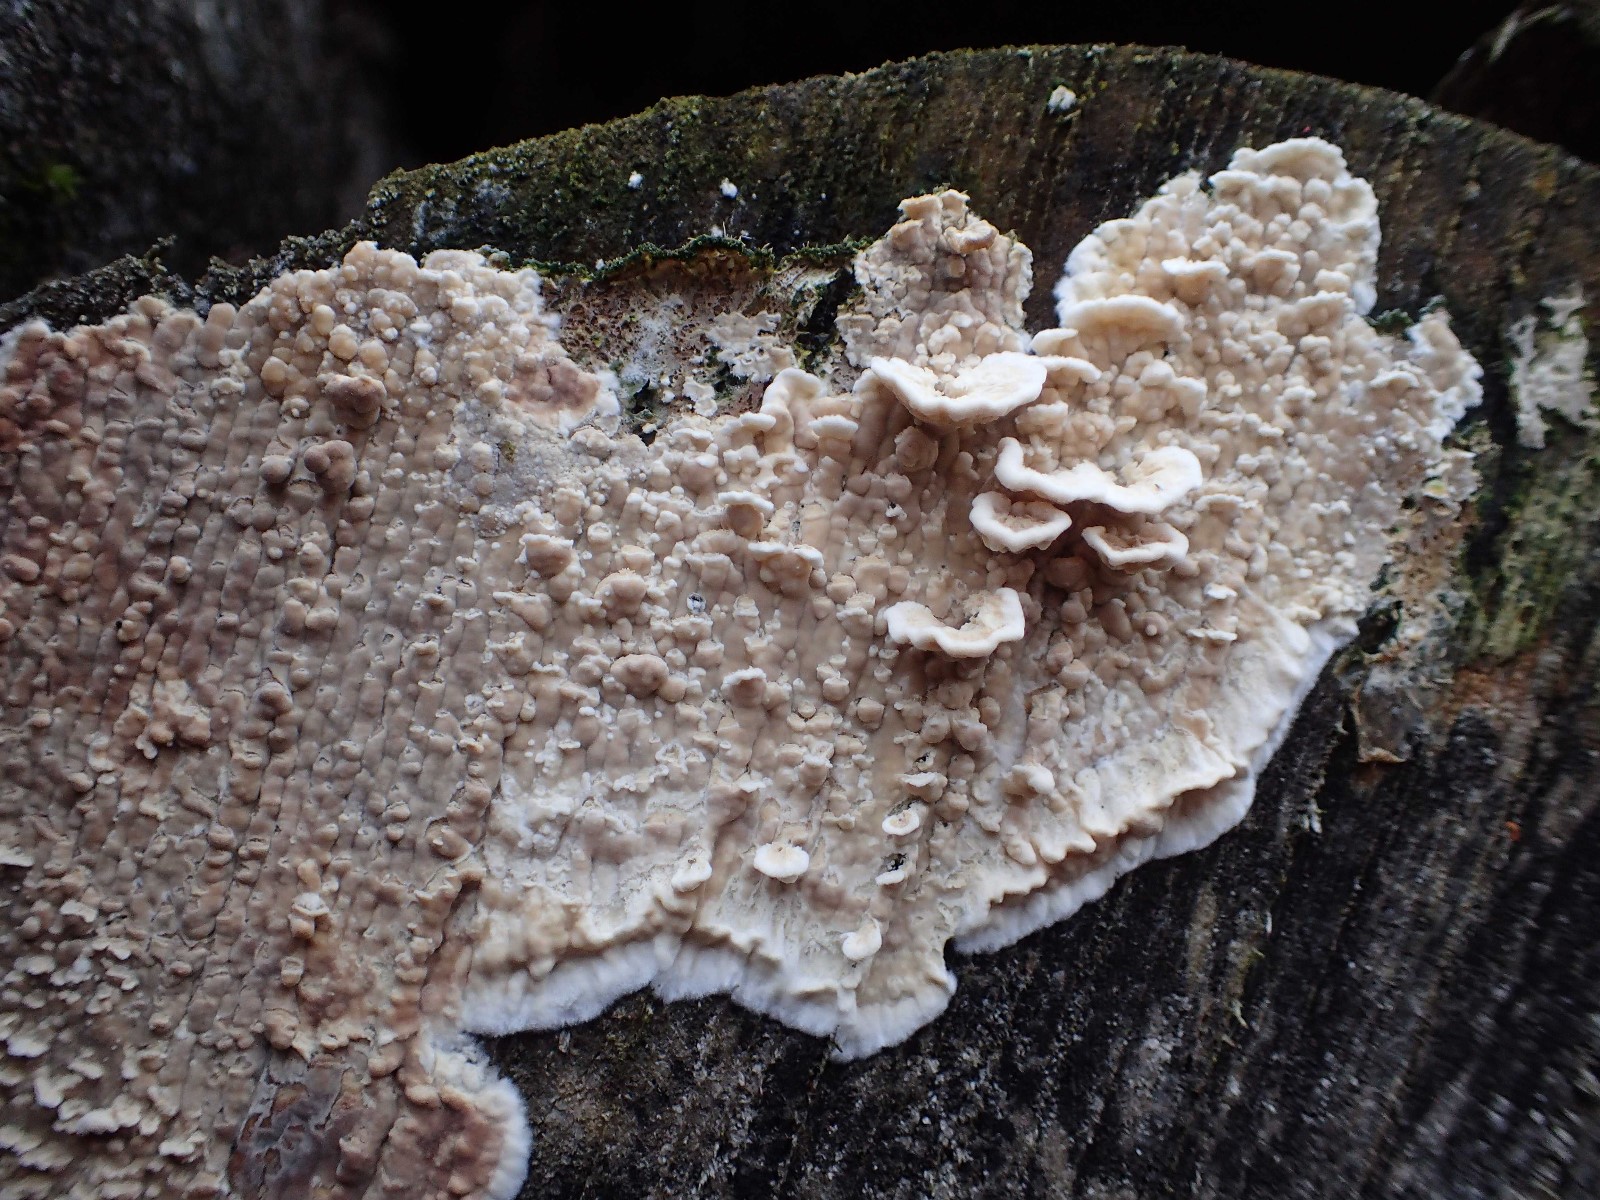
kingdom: Fungi
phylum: Basidiomycota
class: Agaricomycetes
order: Agaricales
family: Physalacriaceae
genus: Cylindrobasidium
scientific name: Cylindrobasidium evolvens
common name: sprækkehinde
